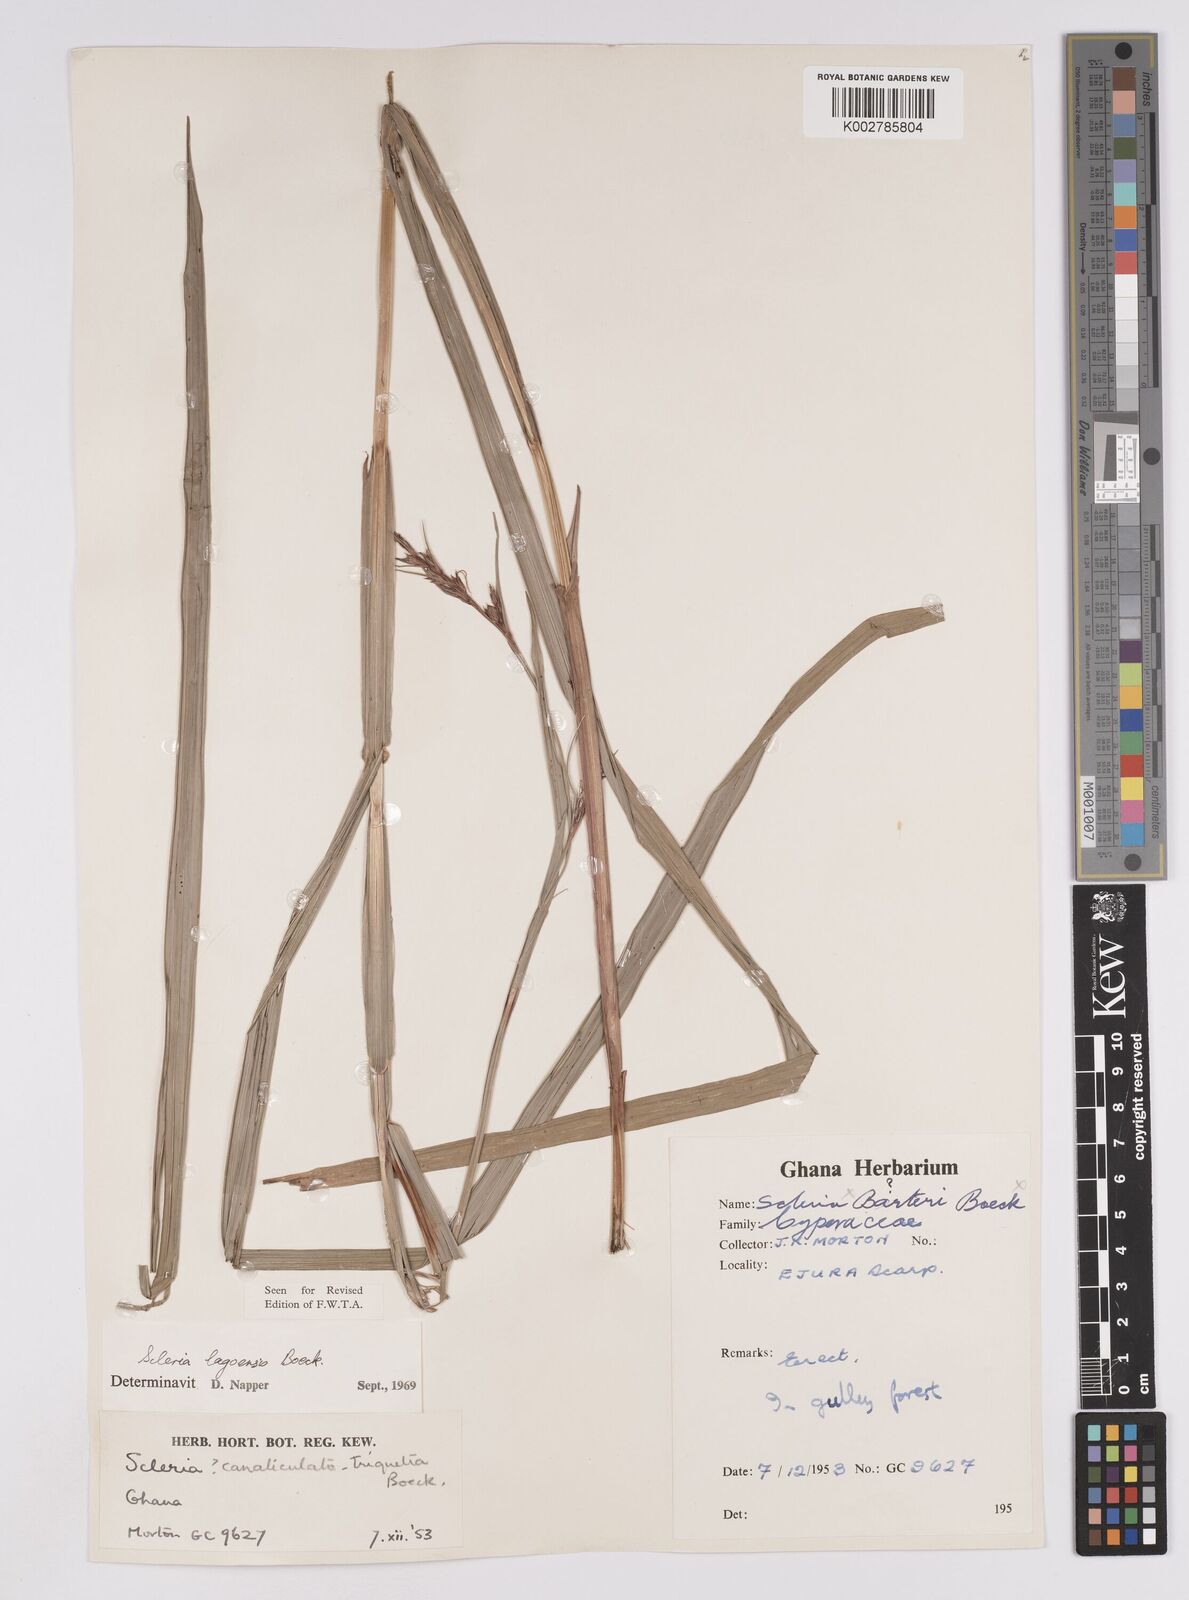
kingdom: Plantae
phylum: Tracheophyta
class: Liliopsida
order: Poales
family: Cyperaceae
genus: Scleria
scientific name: Scleria lagoensis
